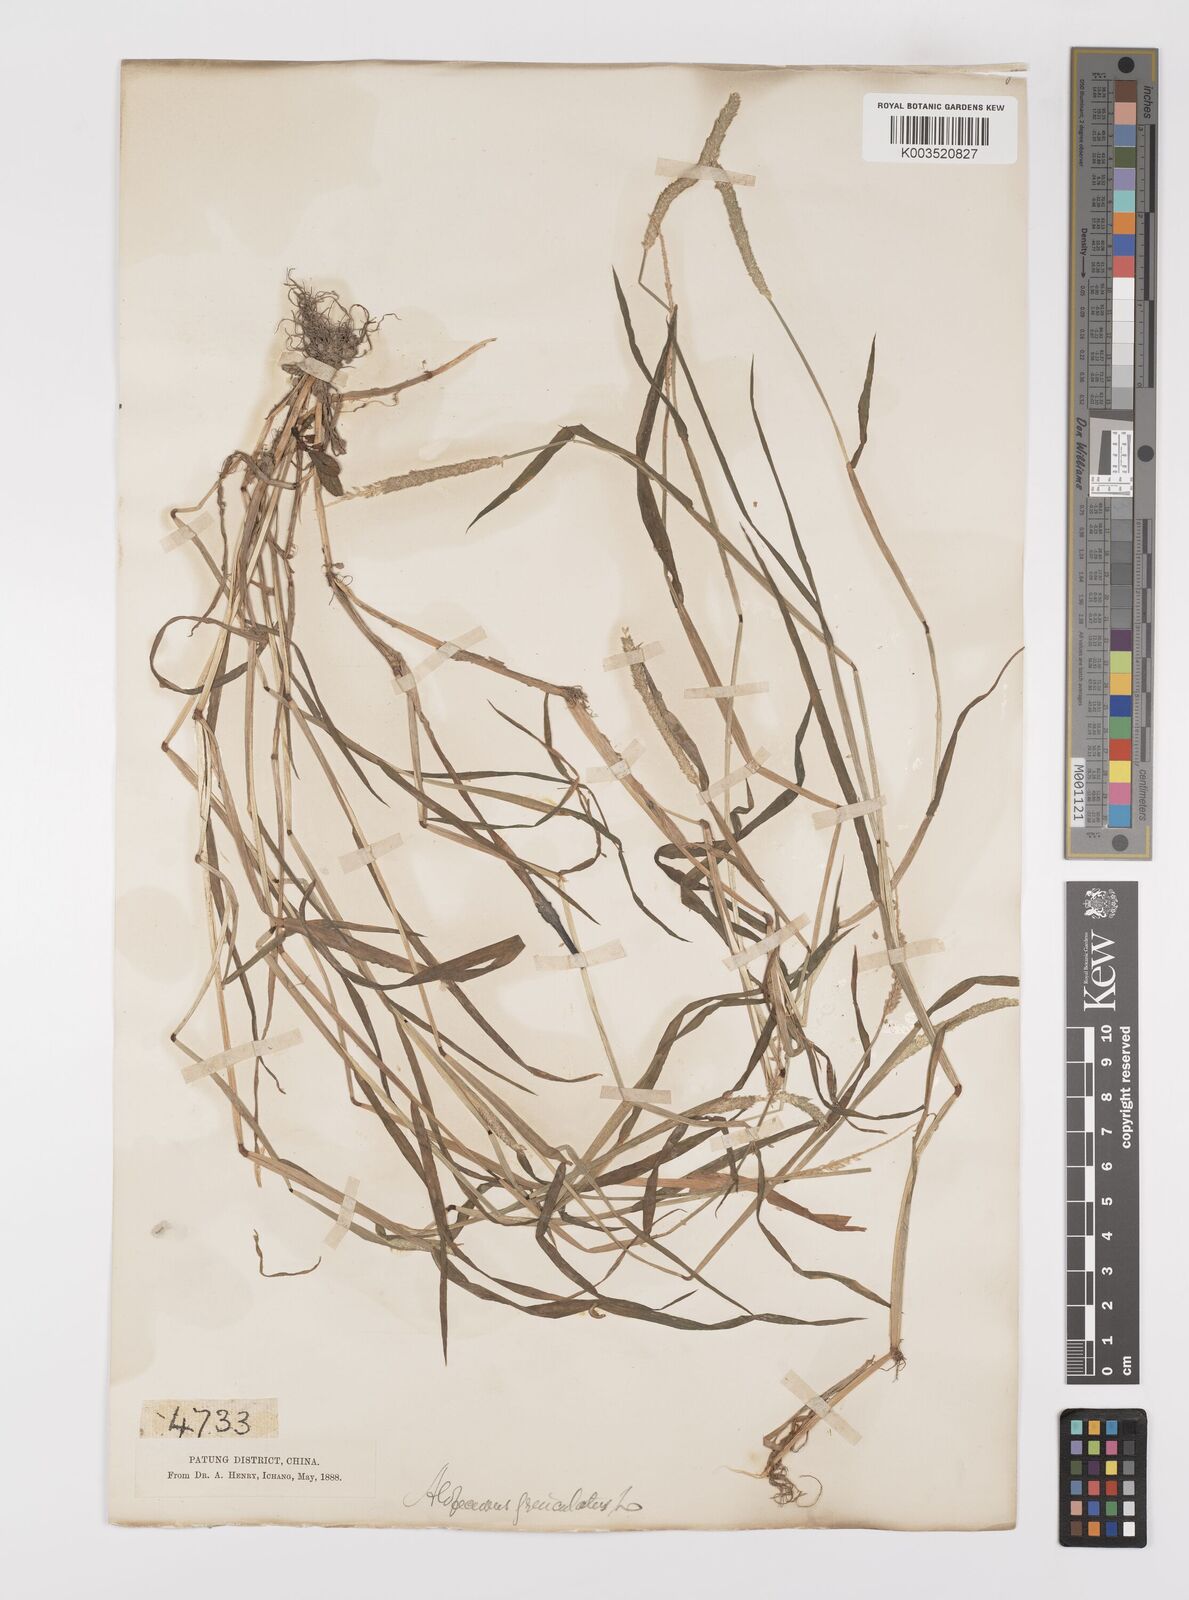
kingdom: Plantae
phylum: Tracheophyta
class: Liliopsida
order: Poales
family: Poaceae
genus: Alopecurus
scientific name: Alopecurus aequalis
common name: Orange foxtail
